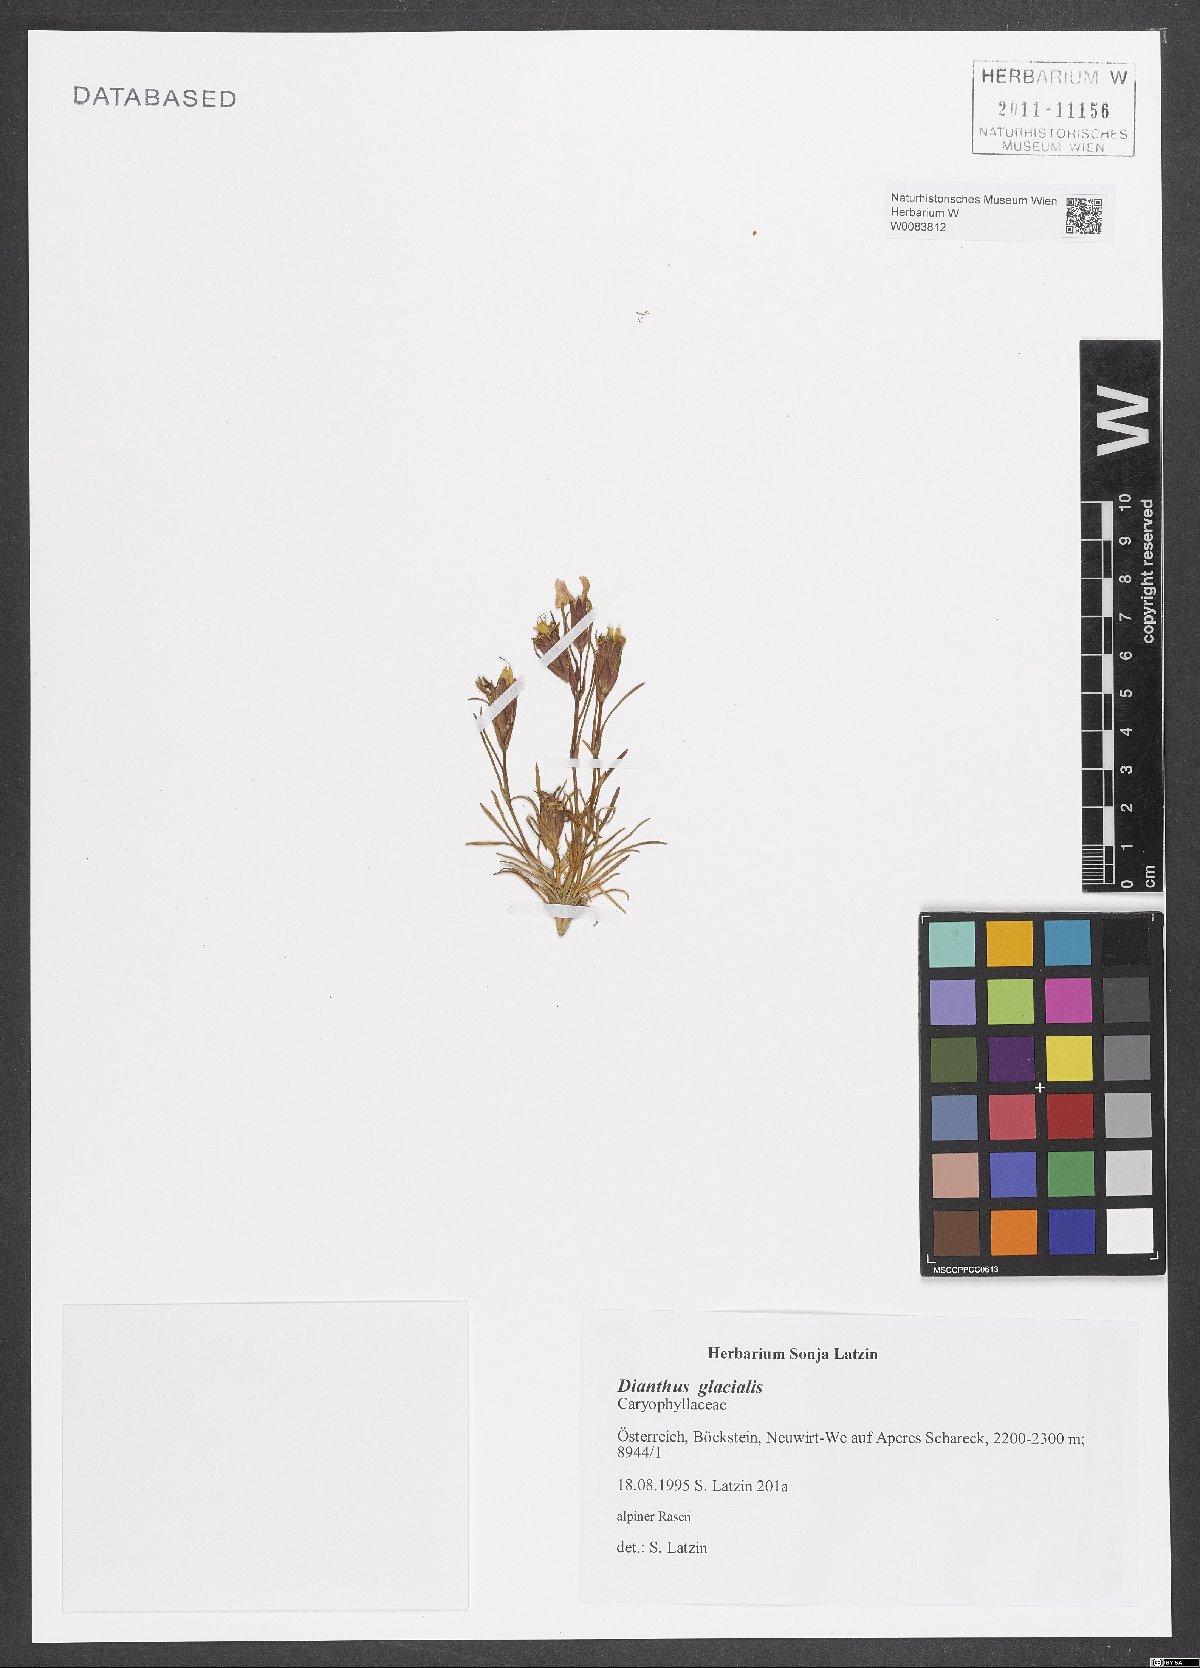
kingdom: Plantae
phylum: Tracheophyta
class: Magnoliopsida
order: Caryophyllales
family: Caryophyllaceae
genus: Dianthus
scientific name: Dianthus glacialis
